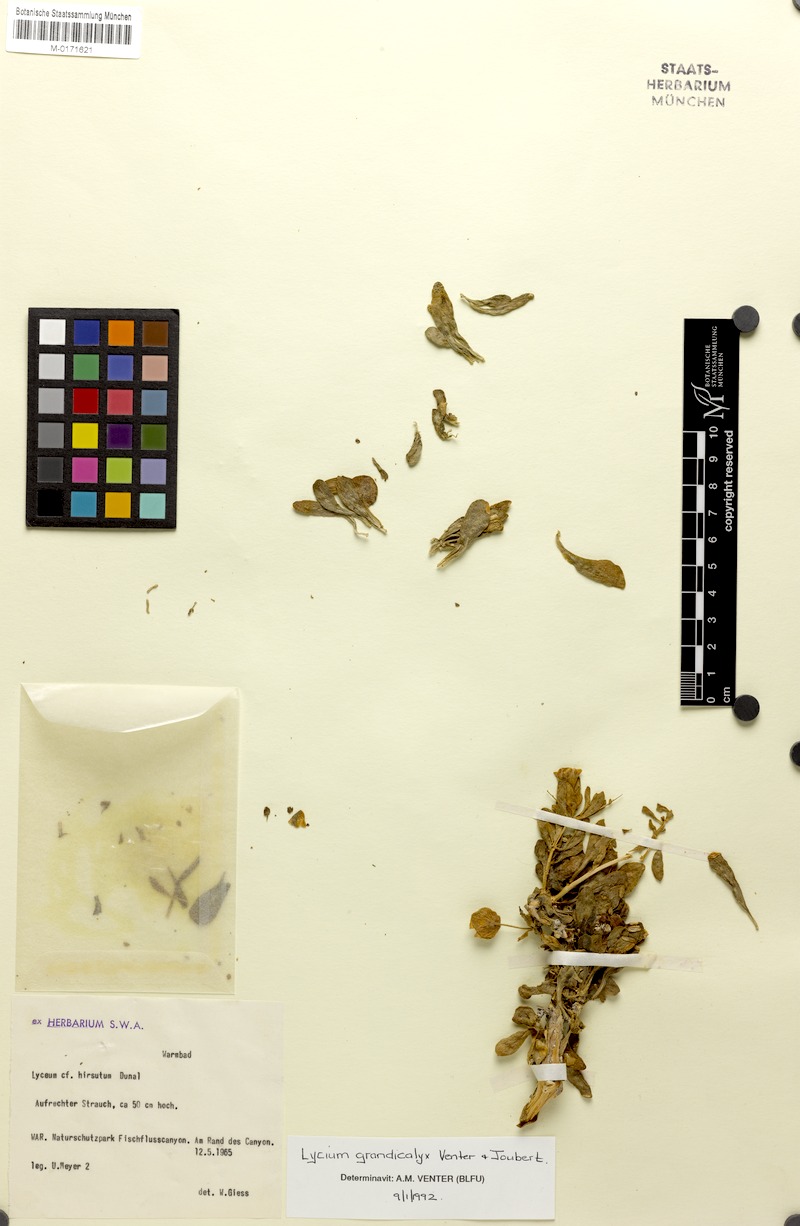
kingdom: Plantae
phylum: Tracheophyta
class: Magnoliopsida
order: Solanales
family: Solanaceae
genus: Lycium
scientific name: Lycium grandicalyx
